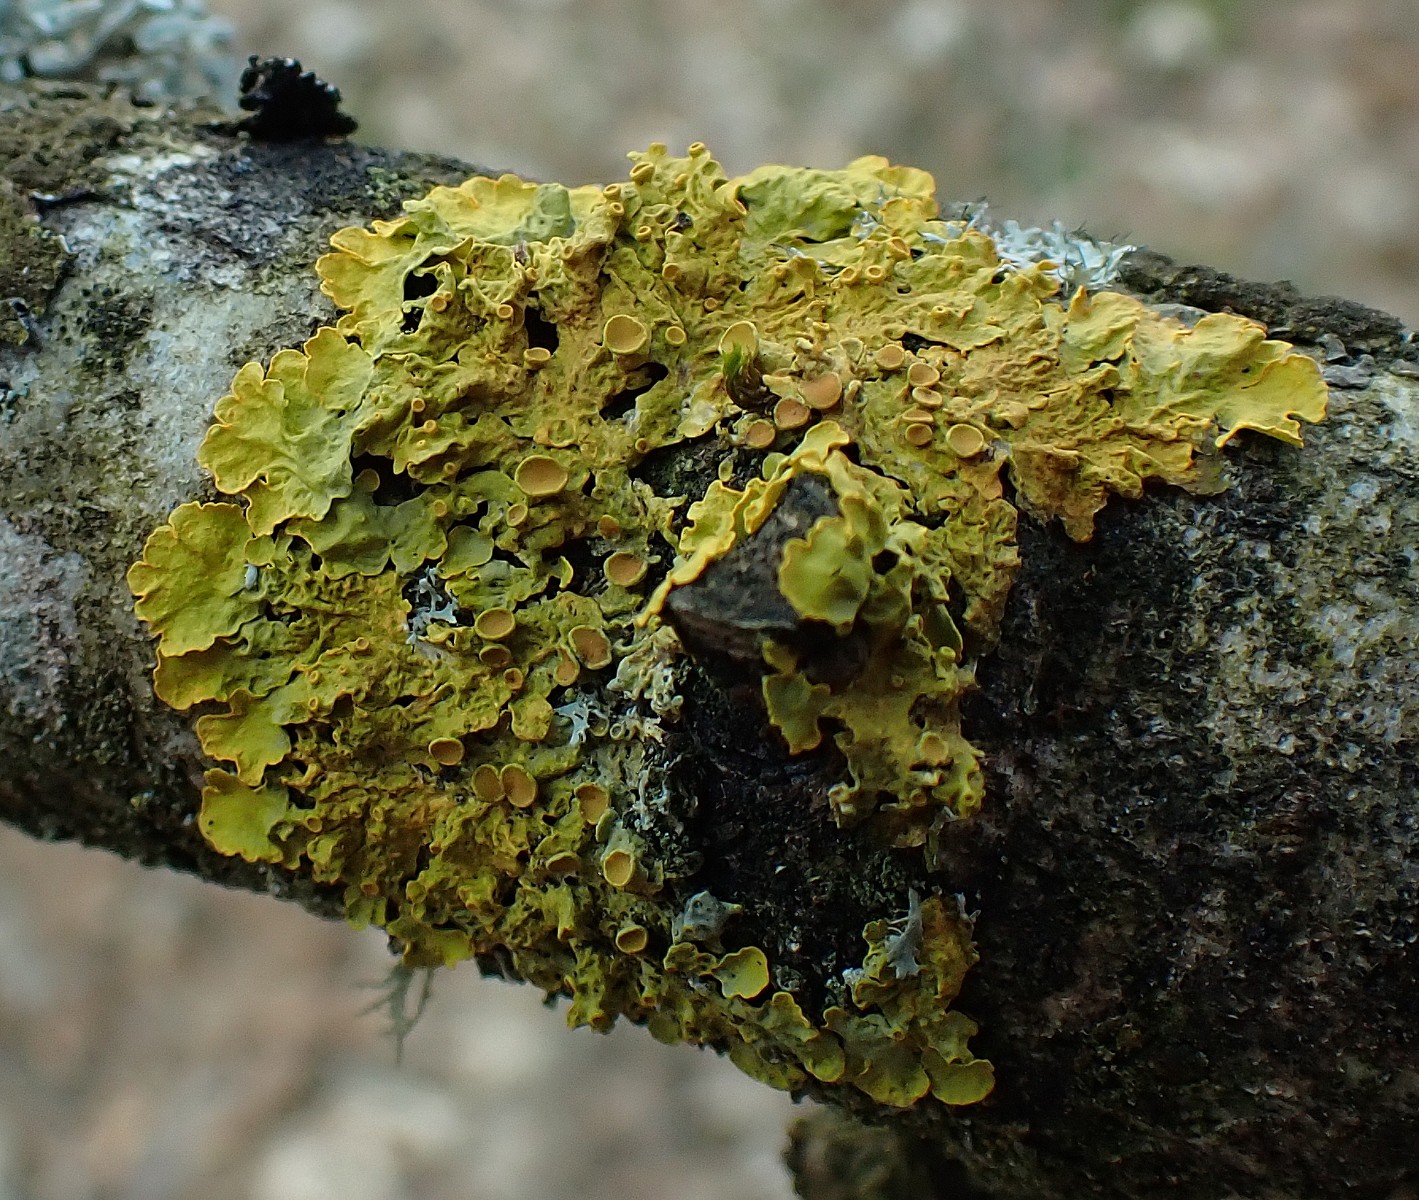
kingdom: Fungi
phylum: Ascomycota
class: Lecanoromycetes
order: Teloschistales
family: Teloschistaceae
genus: Xanthoria
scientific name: Xanthoria parietina
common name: almindelig væggelav
